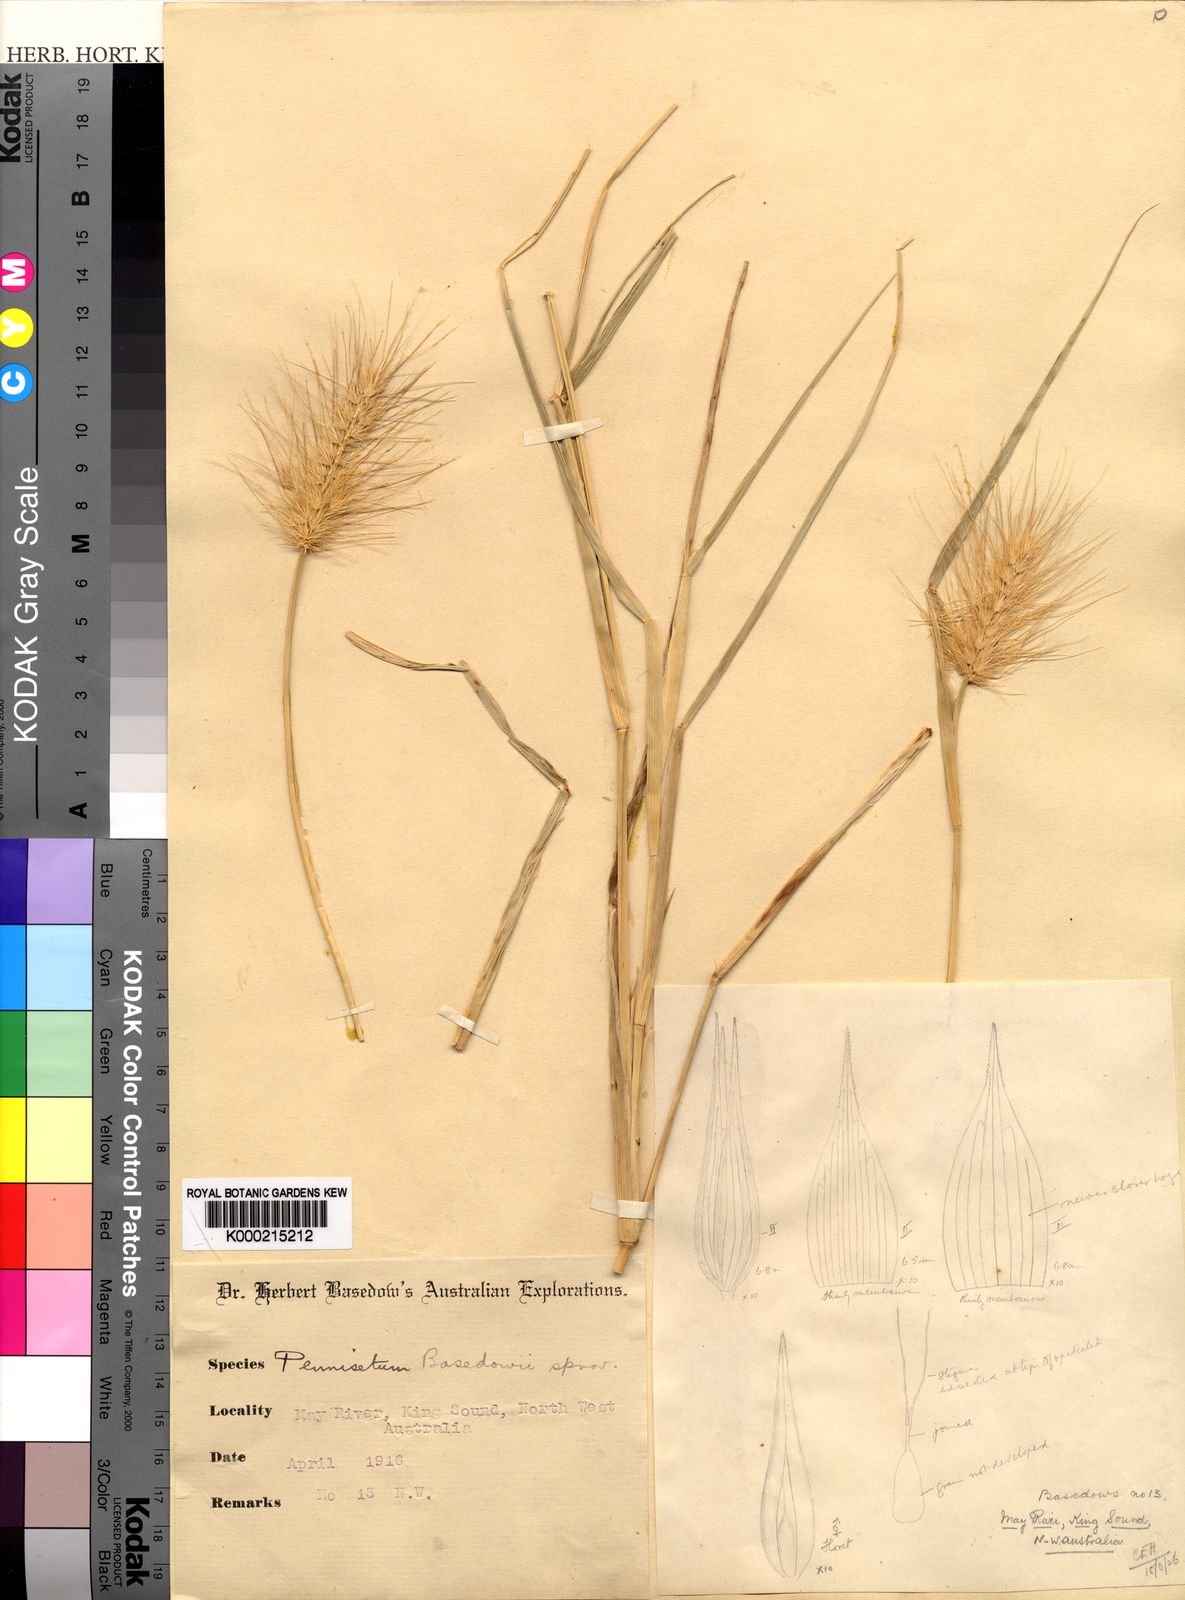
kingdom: Plantae
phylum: Tracheophyta
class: Liliopsida
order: Poales
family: Poaceae
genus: Cenchrus
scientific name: Cenchrus basedowii
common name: Asbestos grass
